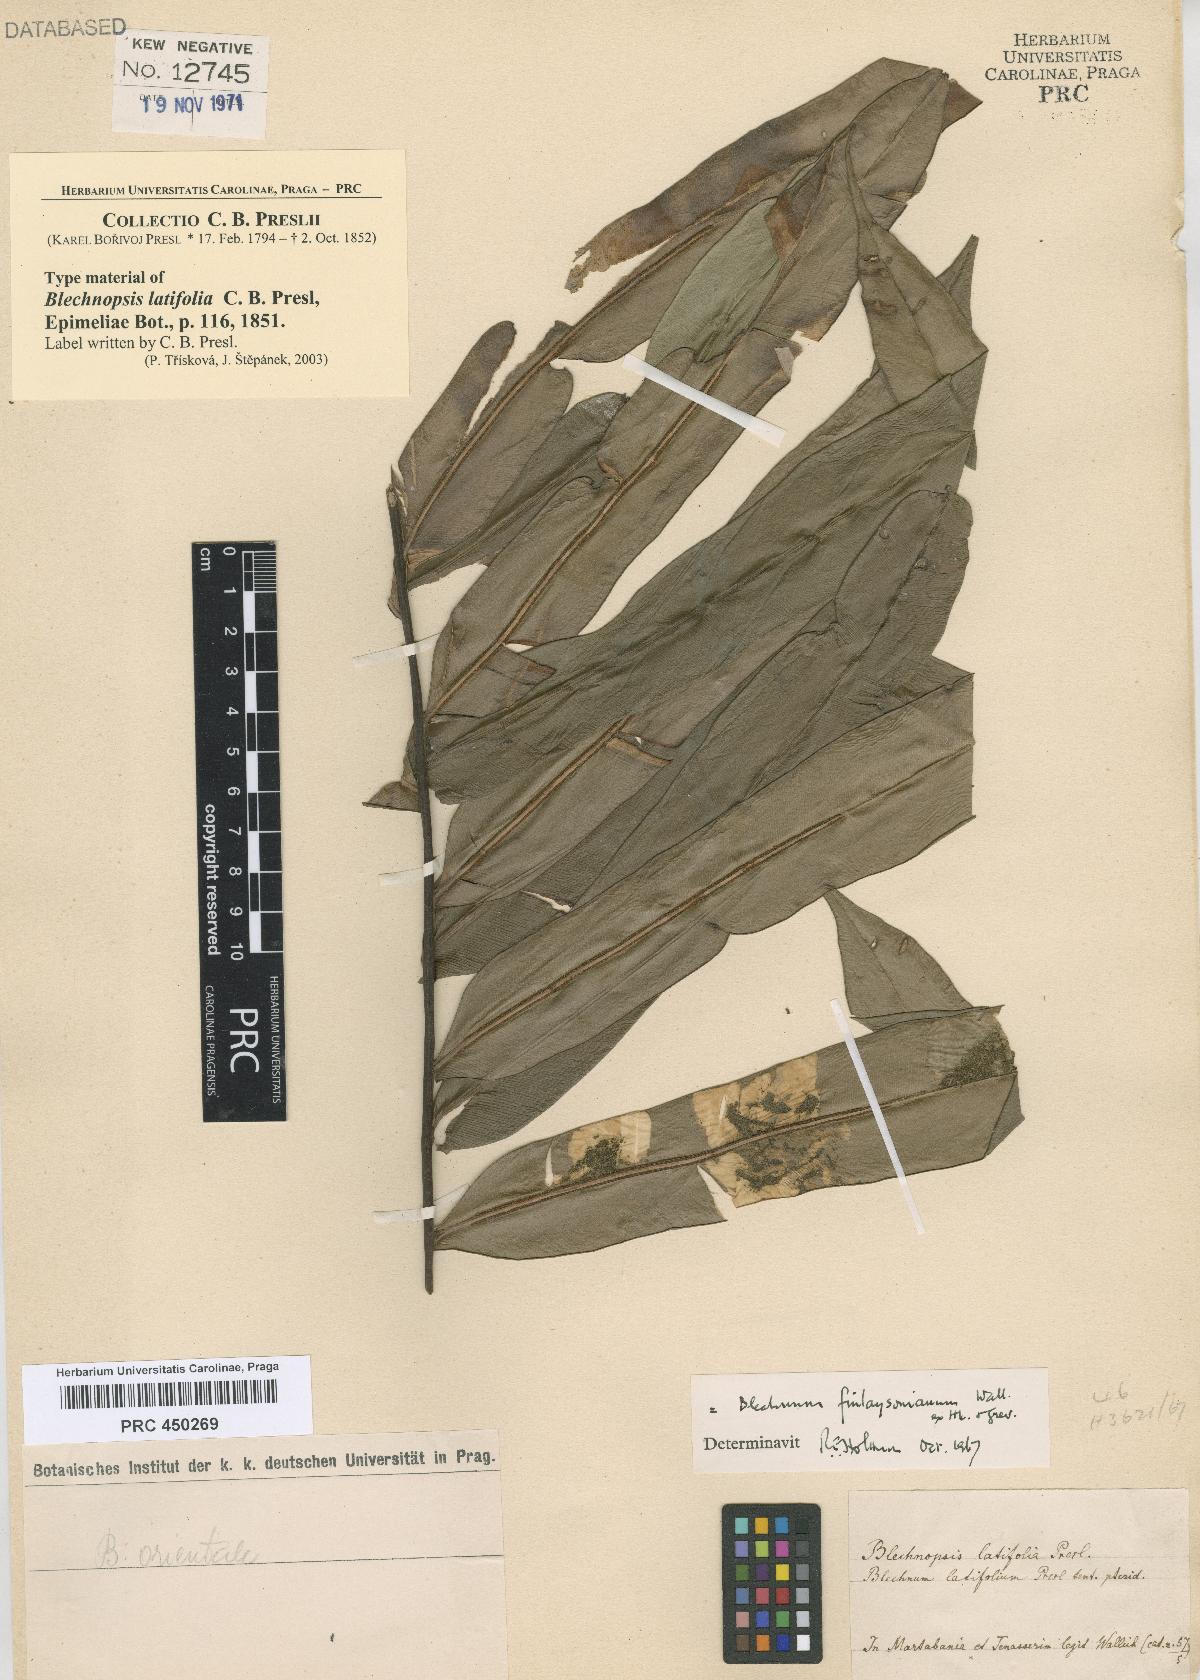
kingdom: Plantae
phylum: Tracheophyta
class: Polypodiopsida
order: Polypodiales
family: Blechnaceae
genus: Blechnopsis
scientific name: Blechnopsis finlaysoniana
